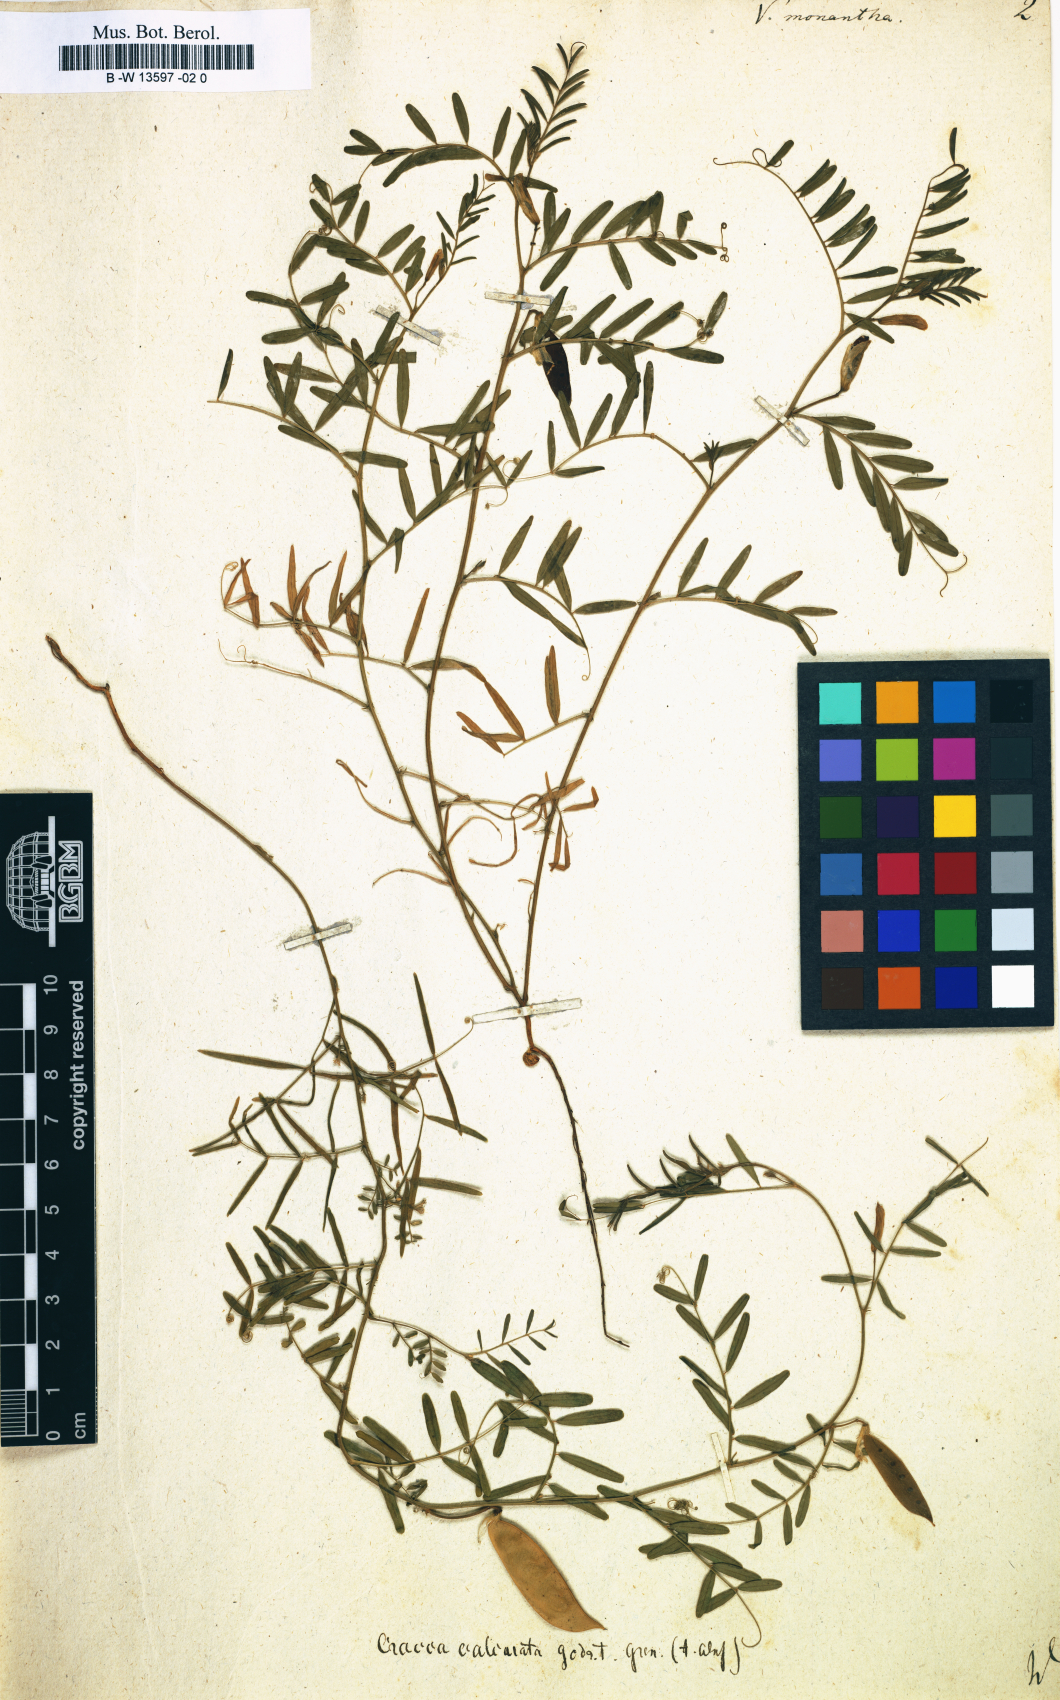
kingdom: Plantae
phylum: Tracheophyta
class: Magnoliopsida
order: Fabales
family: Fabaceae
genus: Vicia
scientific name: Vicia monantha
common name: Barn vetch
